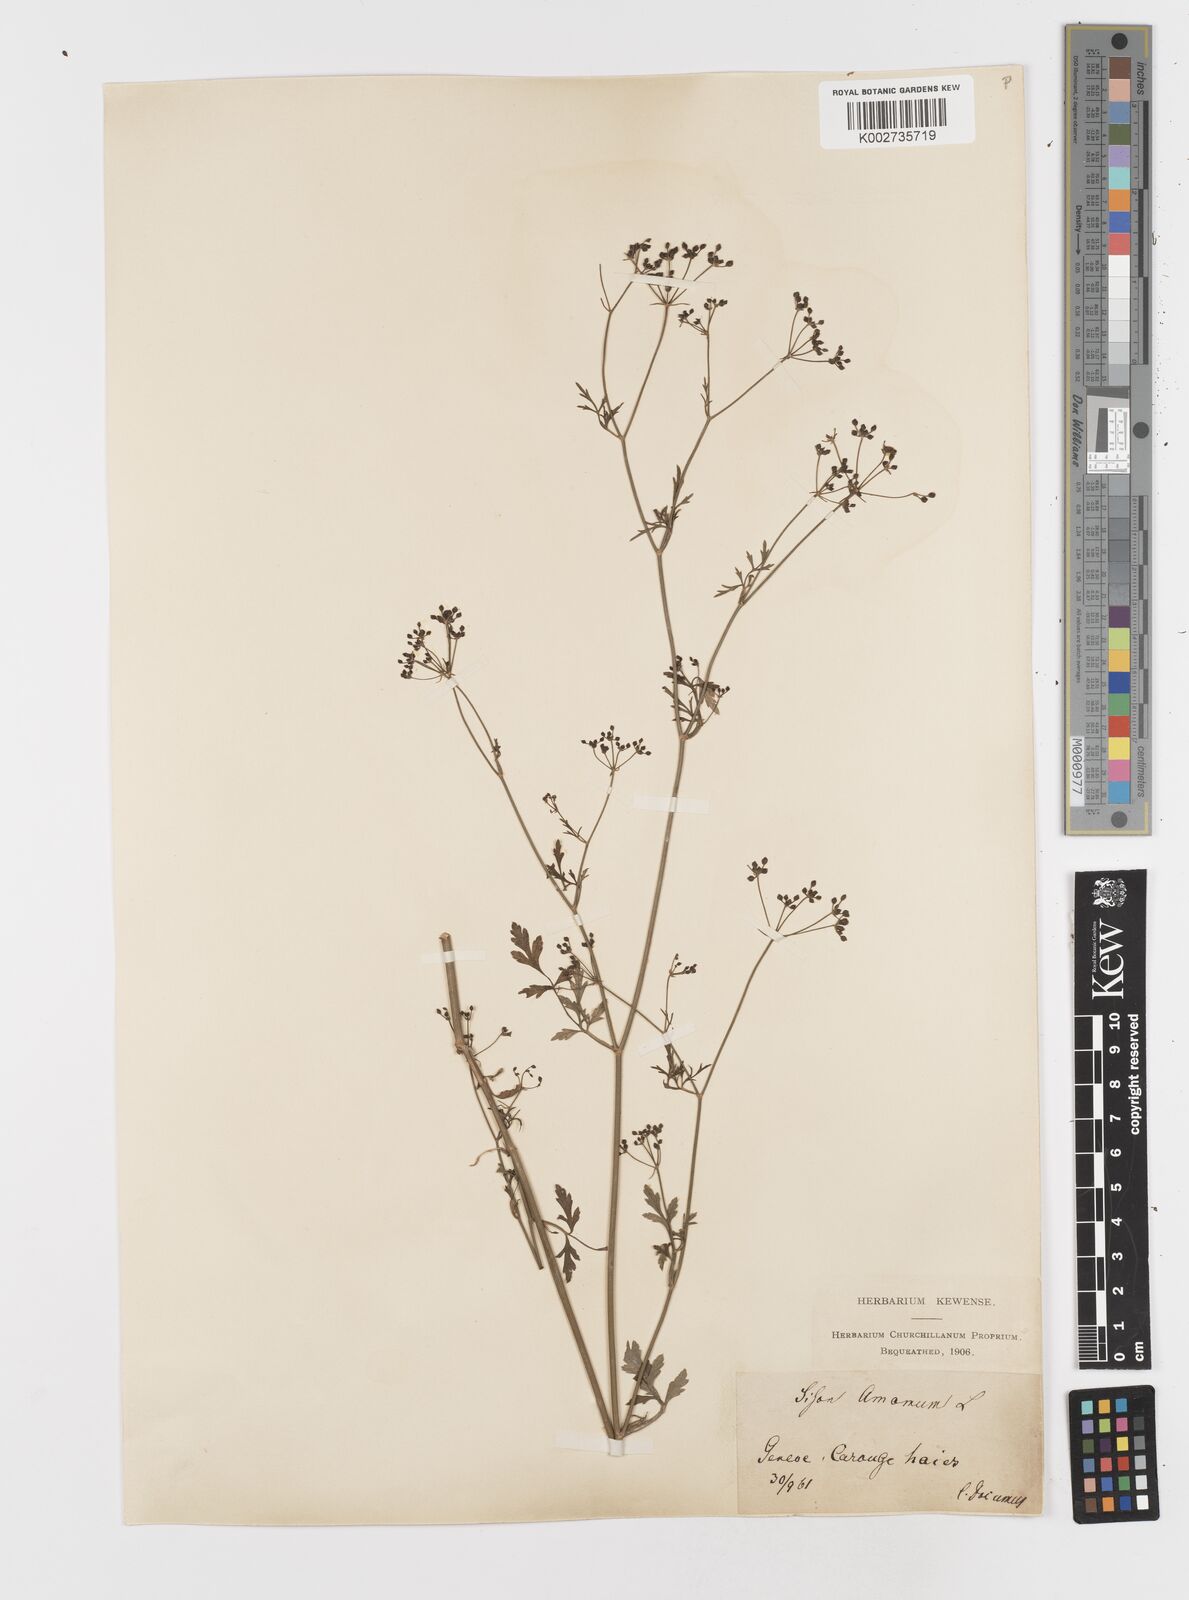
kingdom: Plantae
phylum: Tracheophyta
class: Magnoliopsida
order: Apiales
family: Apiaceae
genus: Sison
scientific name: Sison amomum
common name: Stone-parsley
